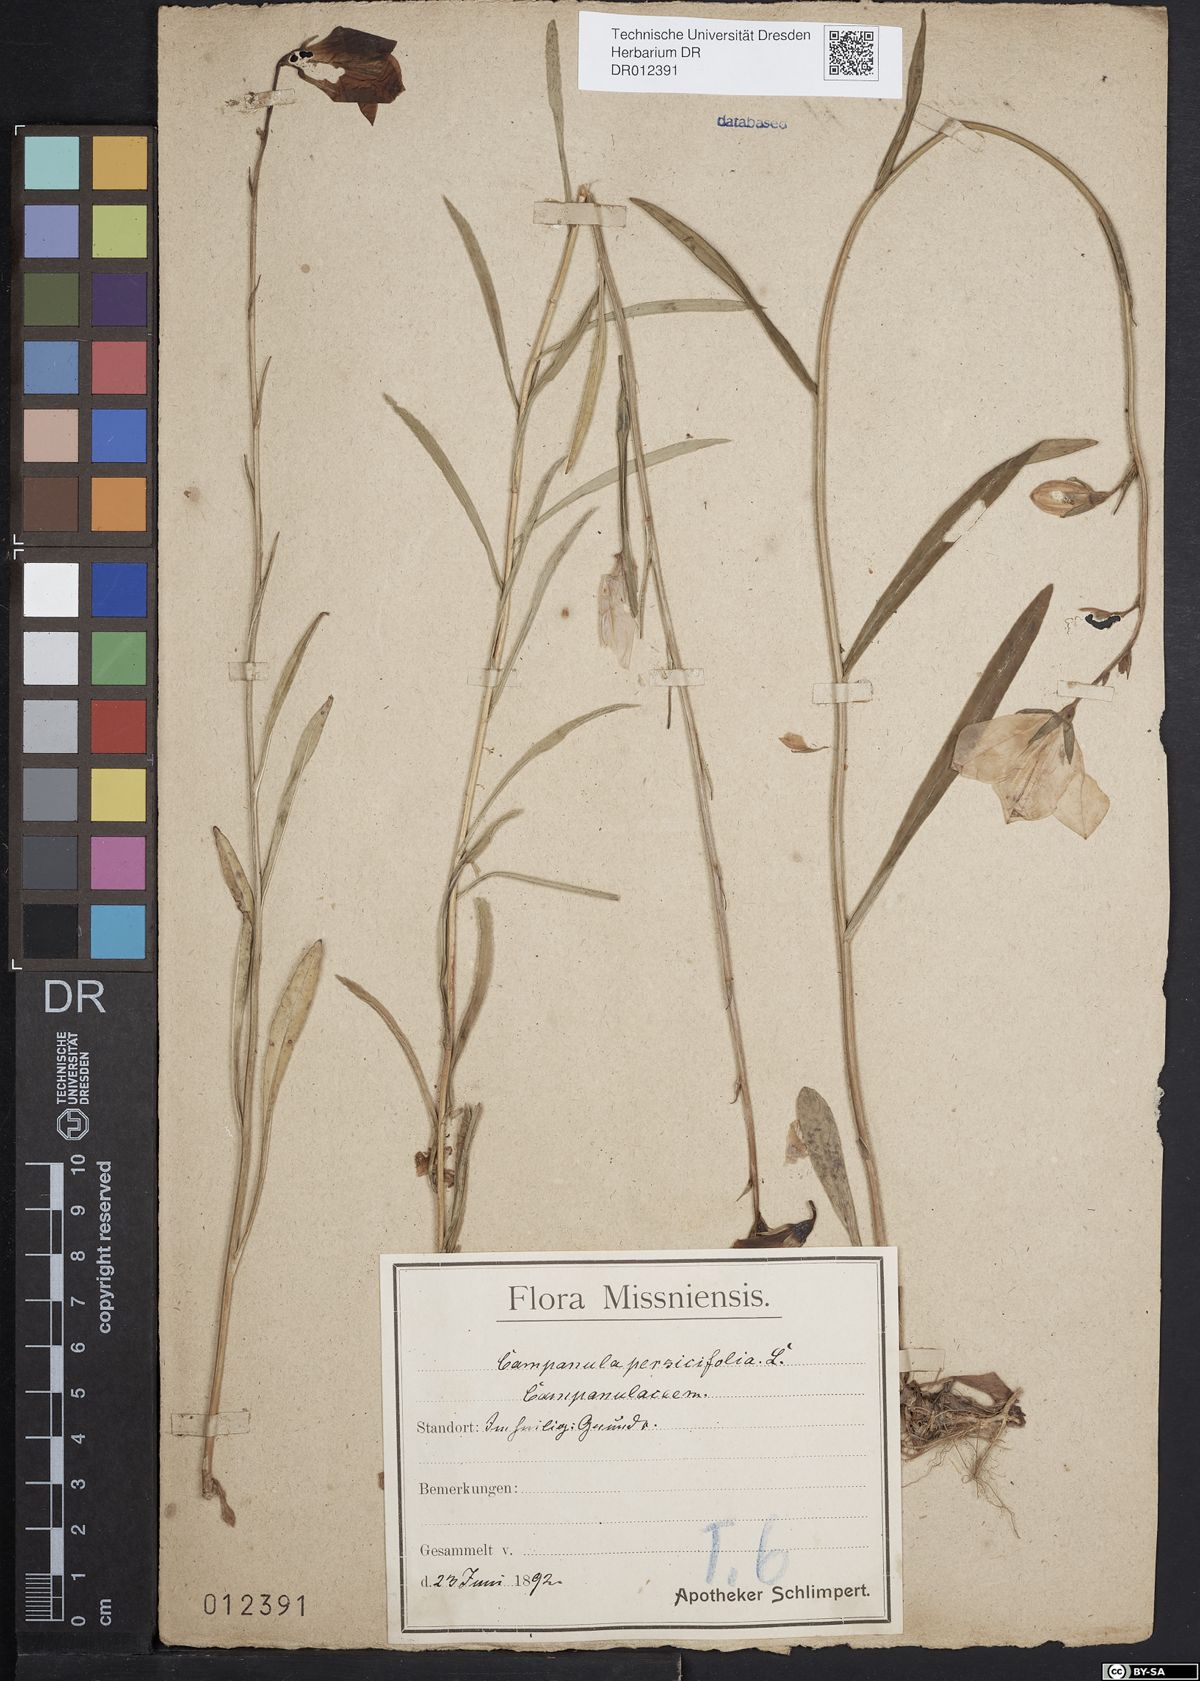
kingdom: Plantae
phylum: Tracheophyta
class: Magnoliopsida
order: Asterales
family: Campanulaceae
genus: Campanula
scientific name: Campanula persicifolia
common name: Peach-leaved bellflower
